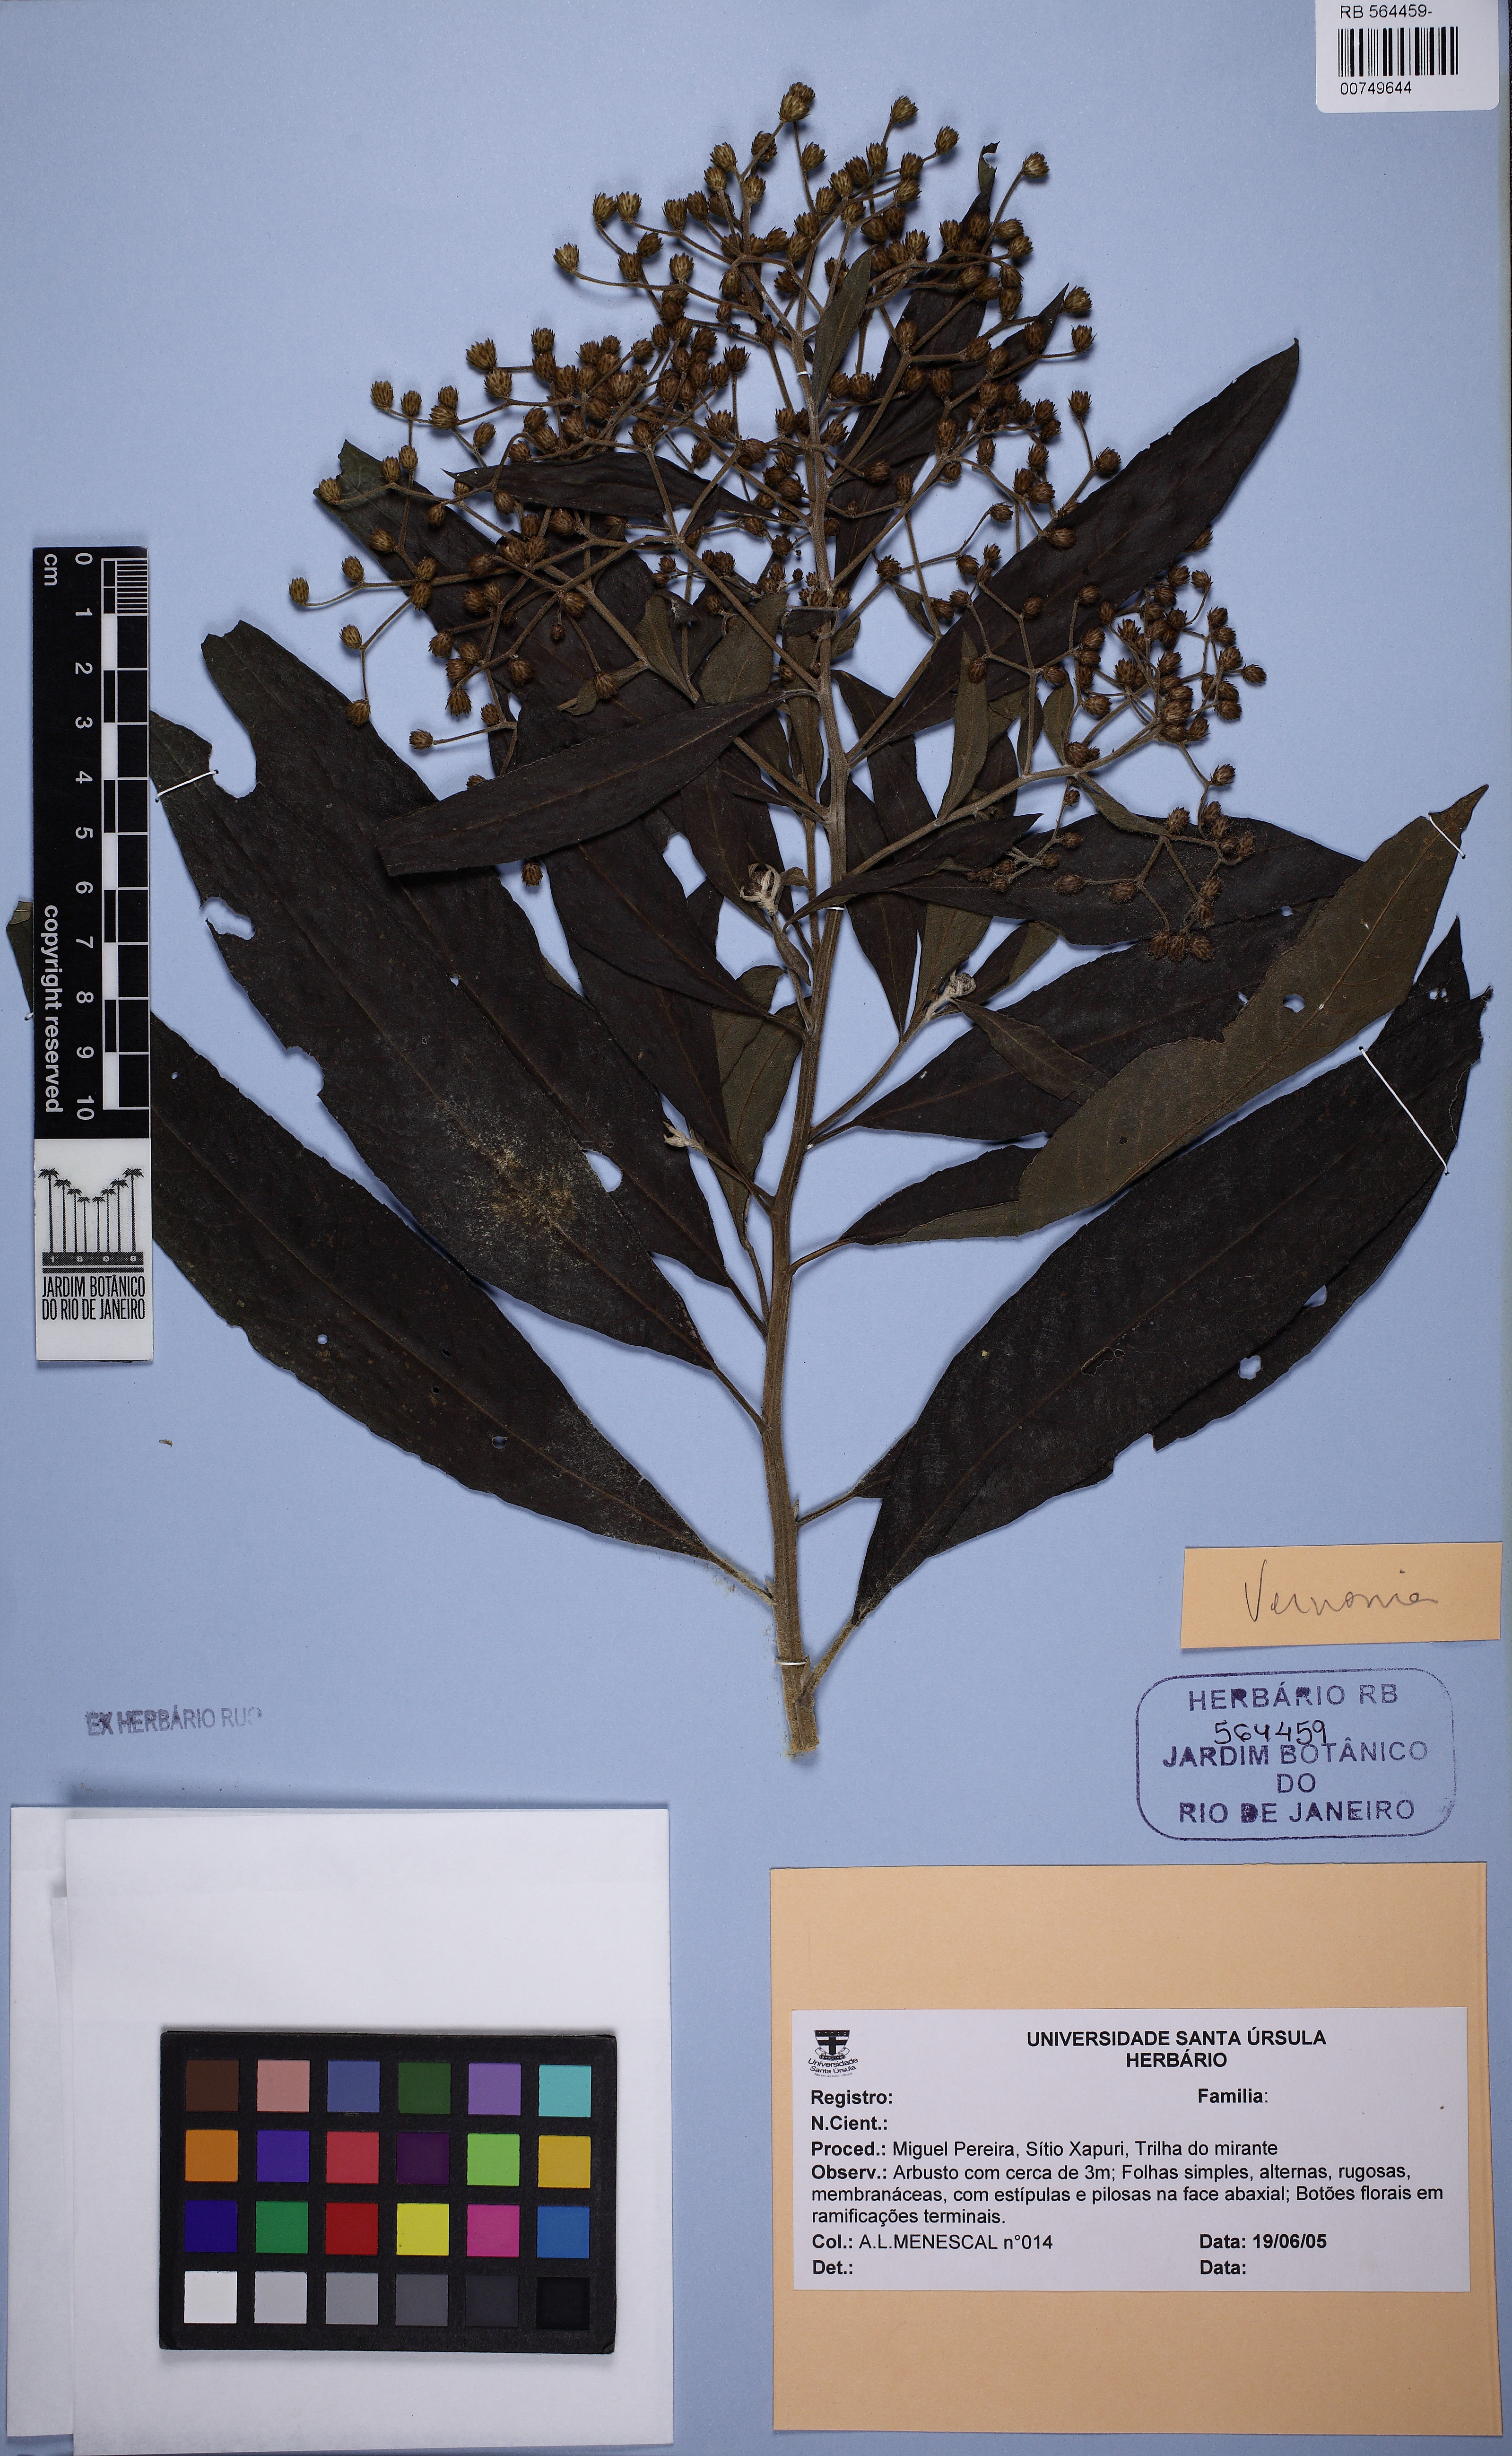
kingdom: Plantae
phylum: Tracheophyta
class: Magnoliopsida
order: Asterales
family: Asteraceae
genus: Vernonia
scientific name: Vernonia
